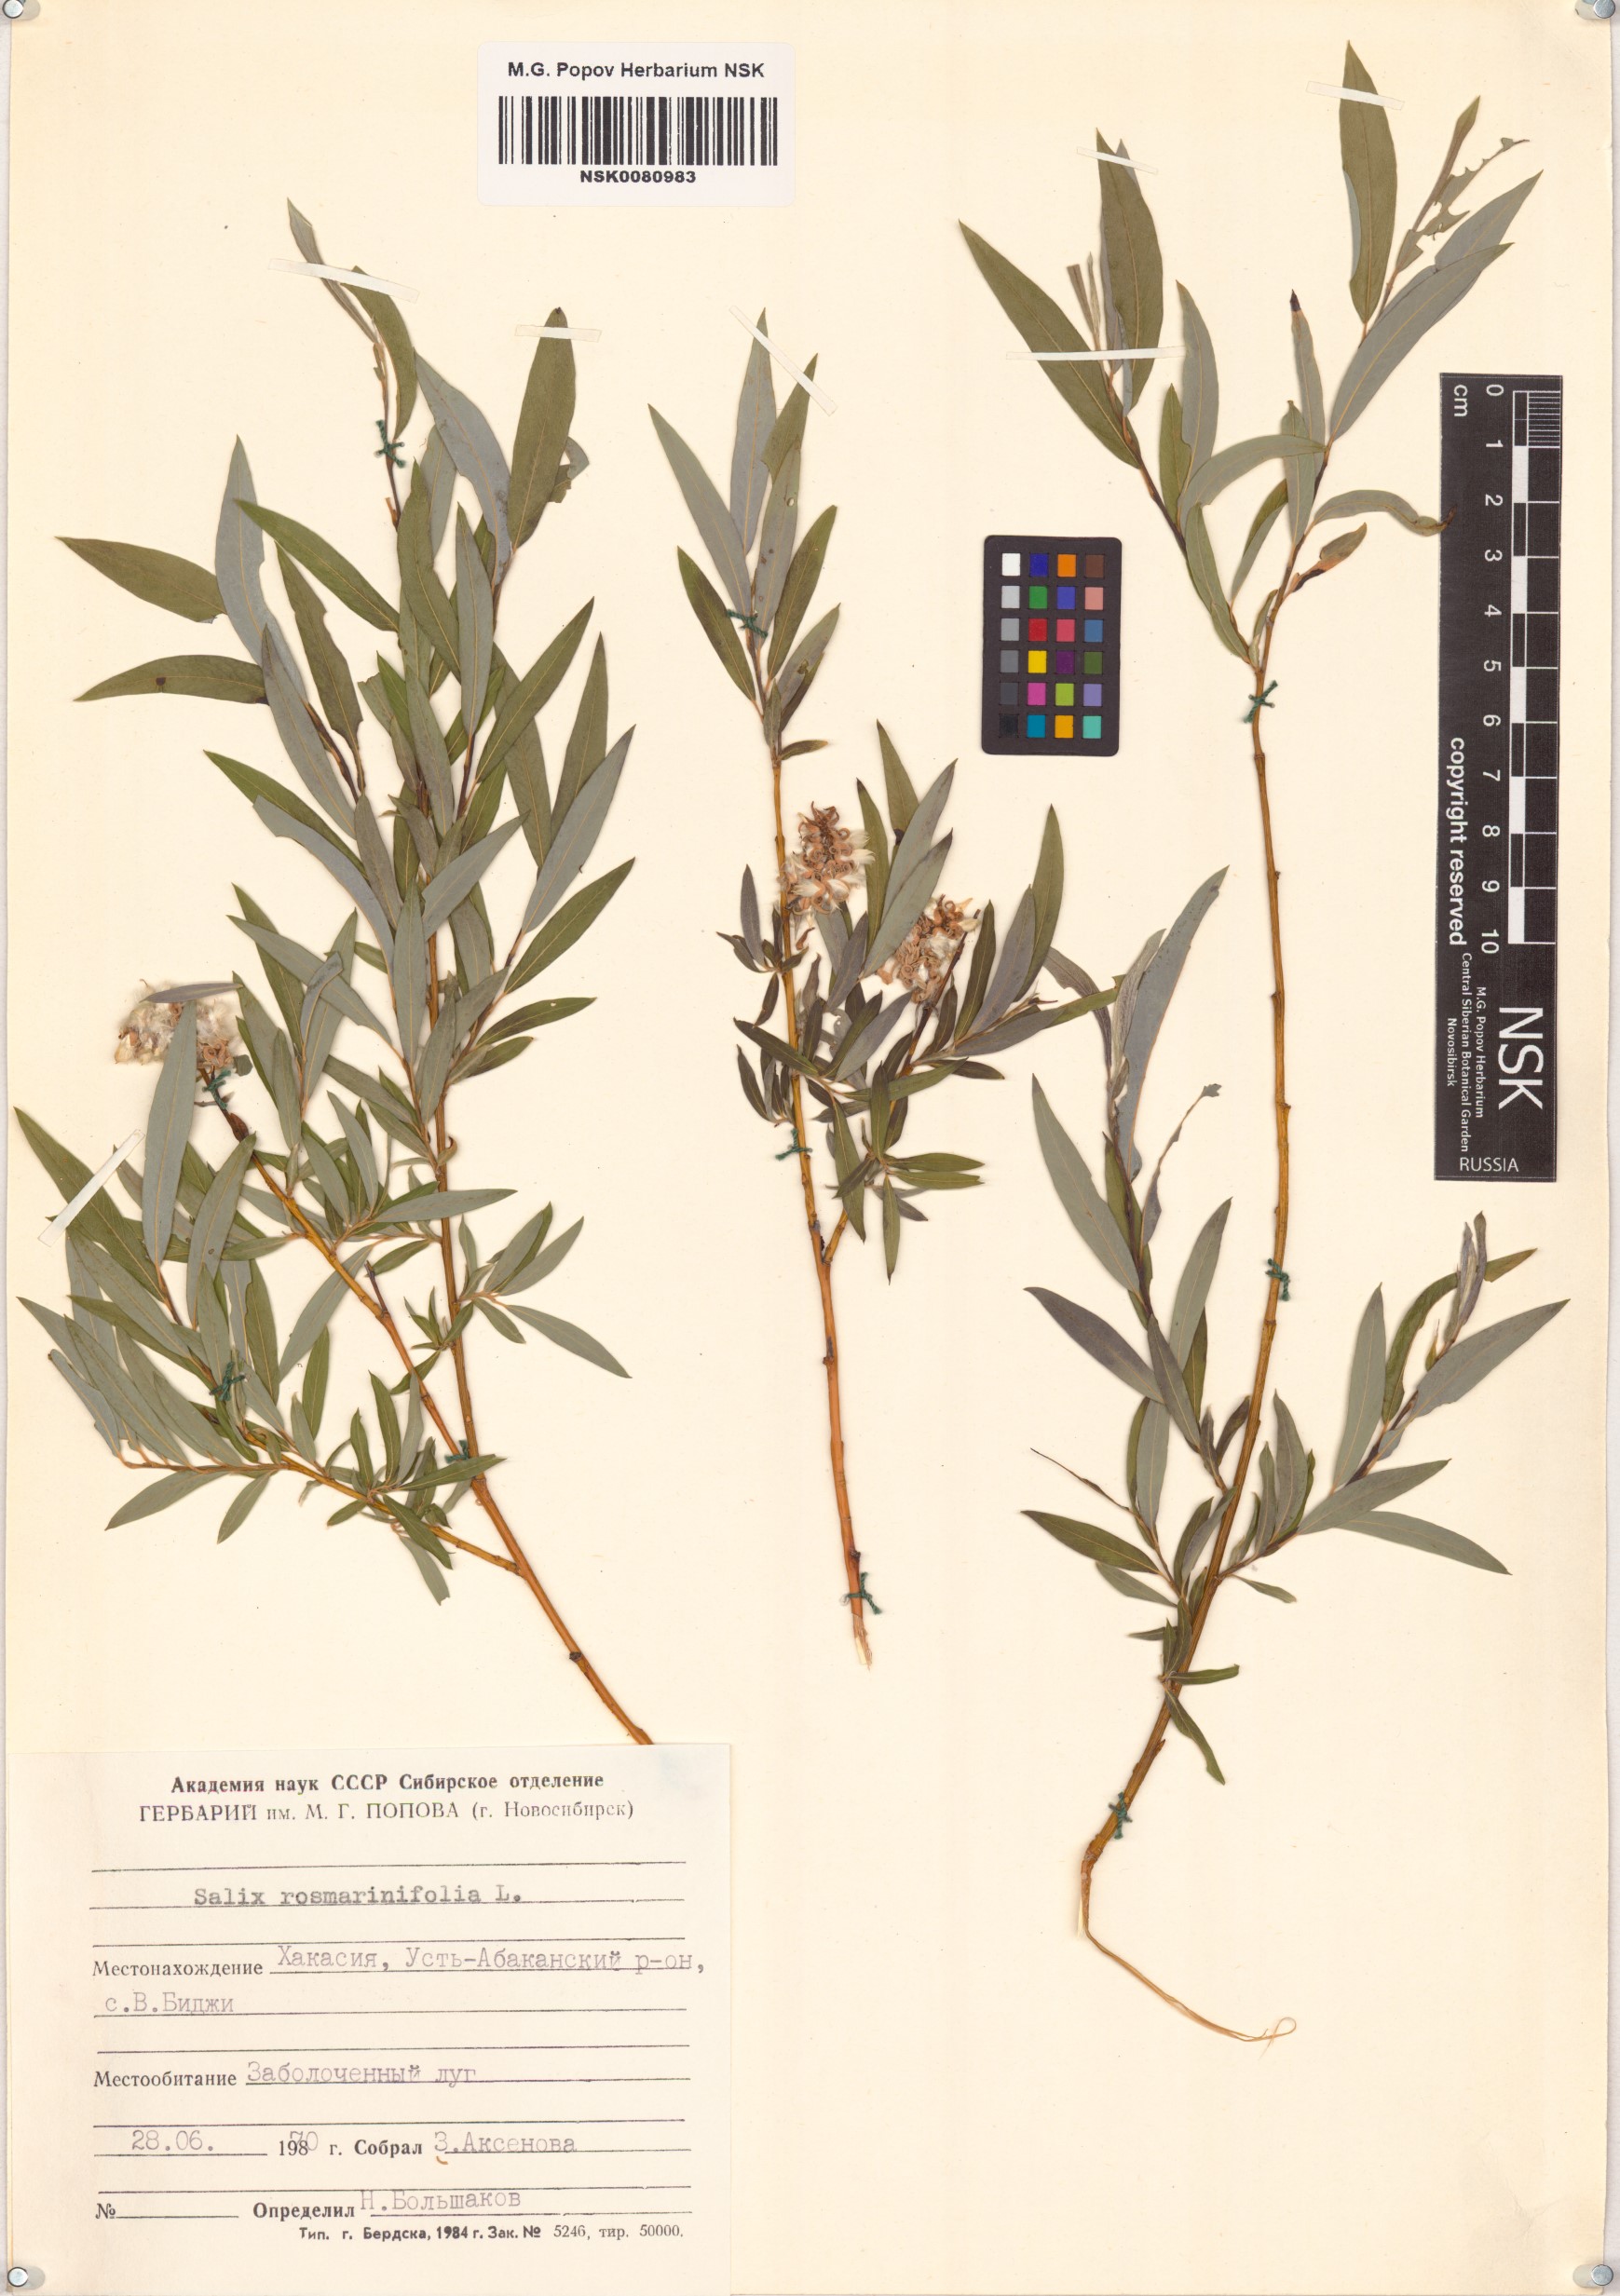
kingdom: Plantae
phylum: Tracheophyta
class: Magnoliopsida
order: Malpighiales
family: Salicaceae
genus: Salix
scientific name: Salix rosmarinifolia
